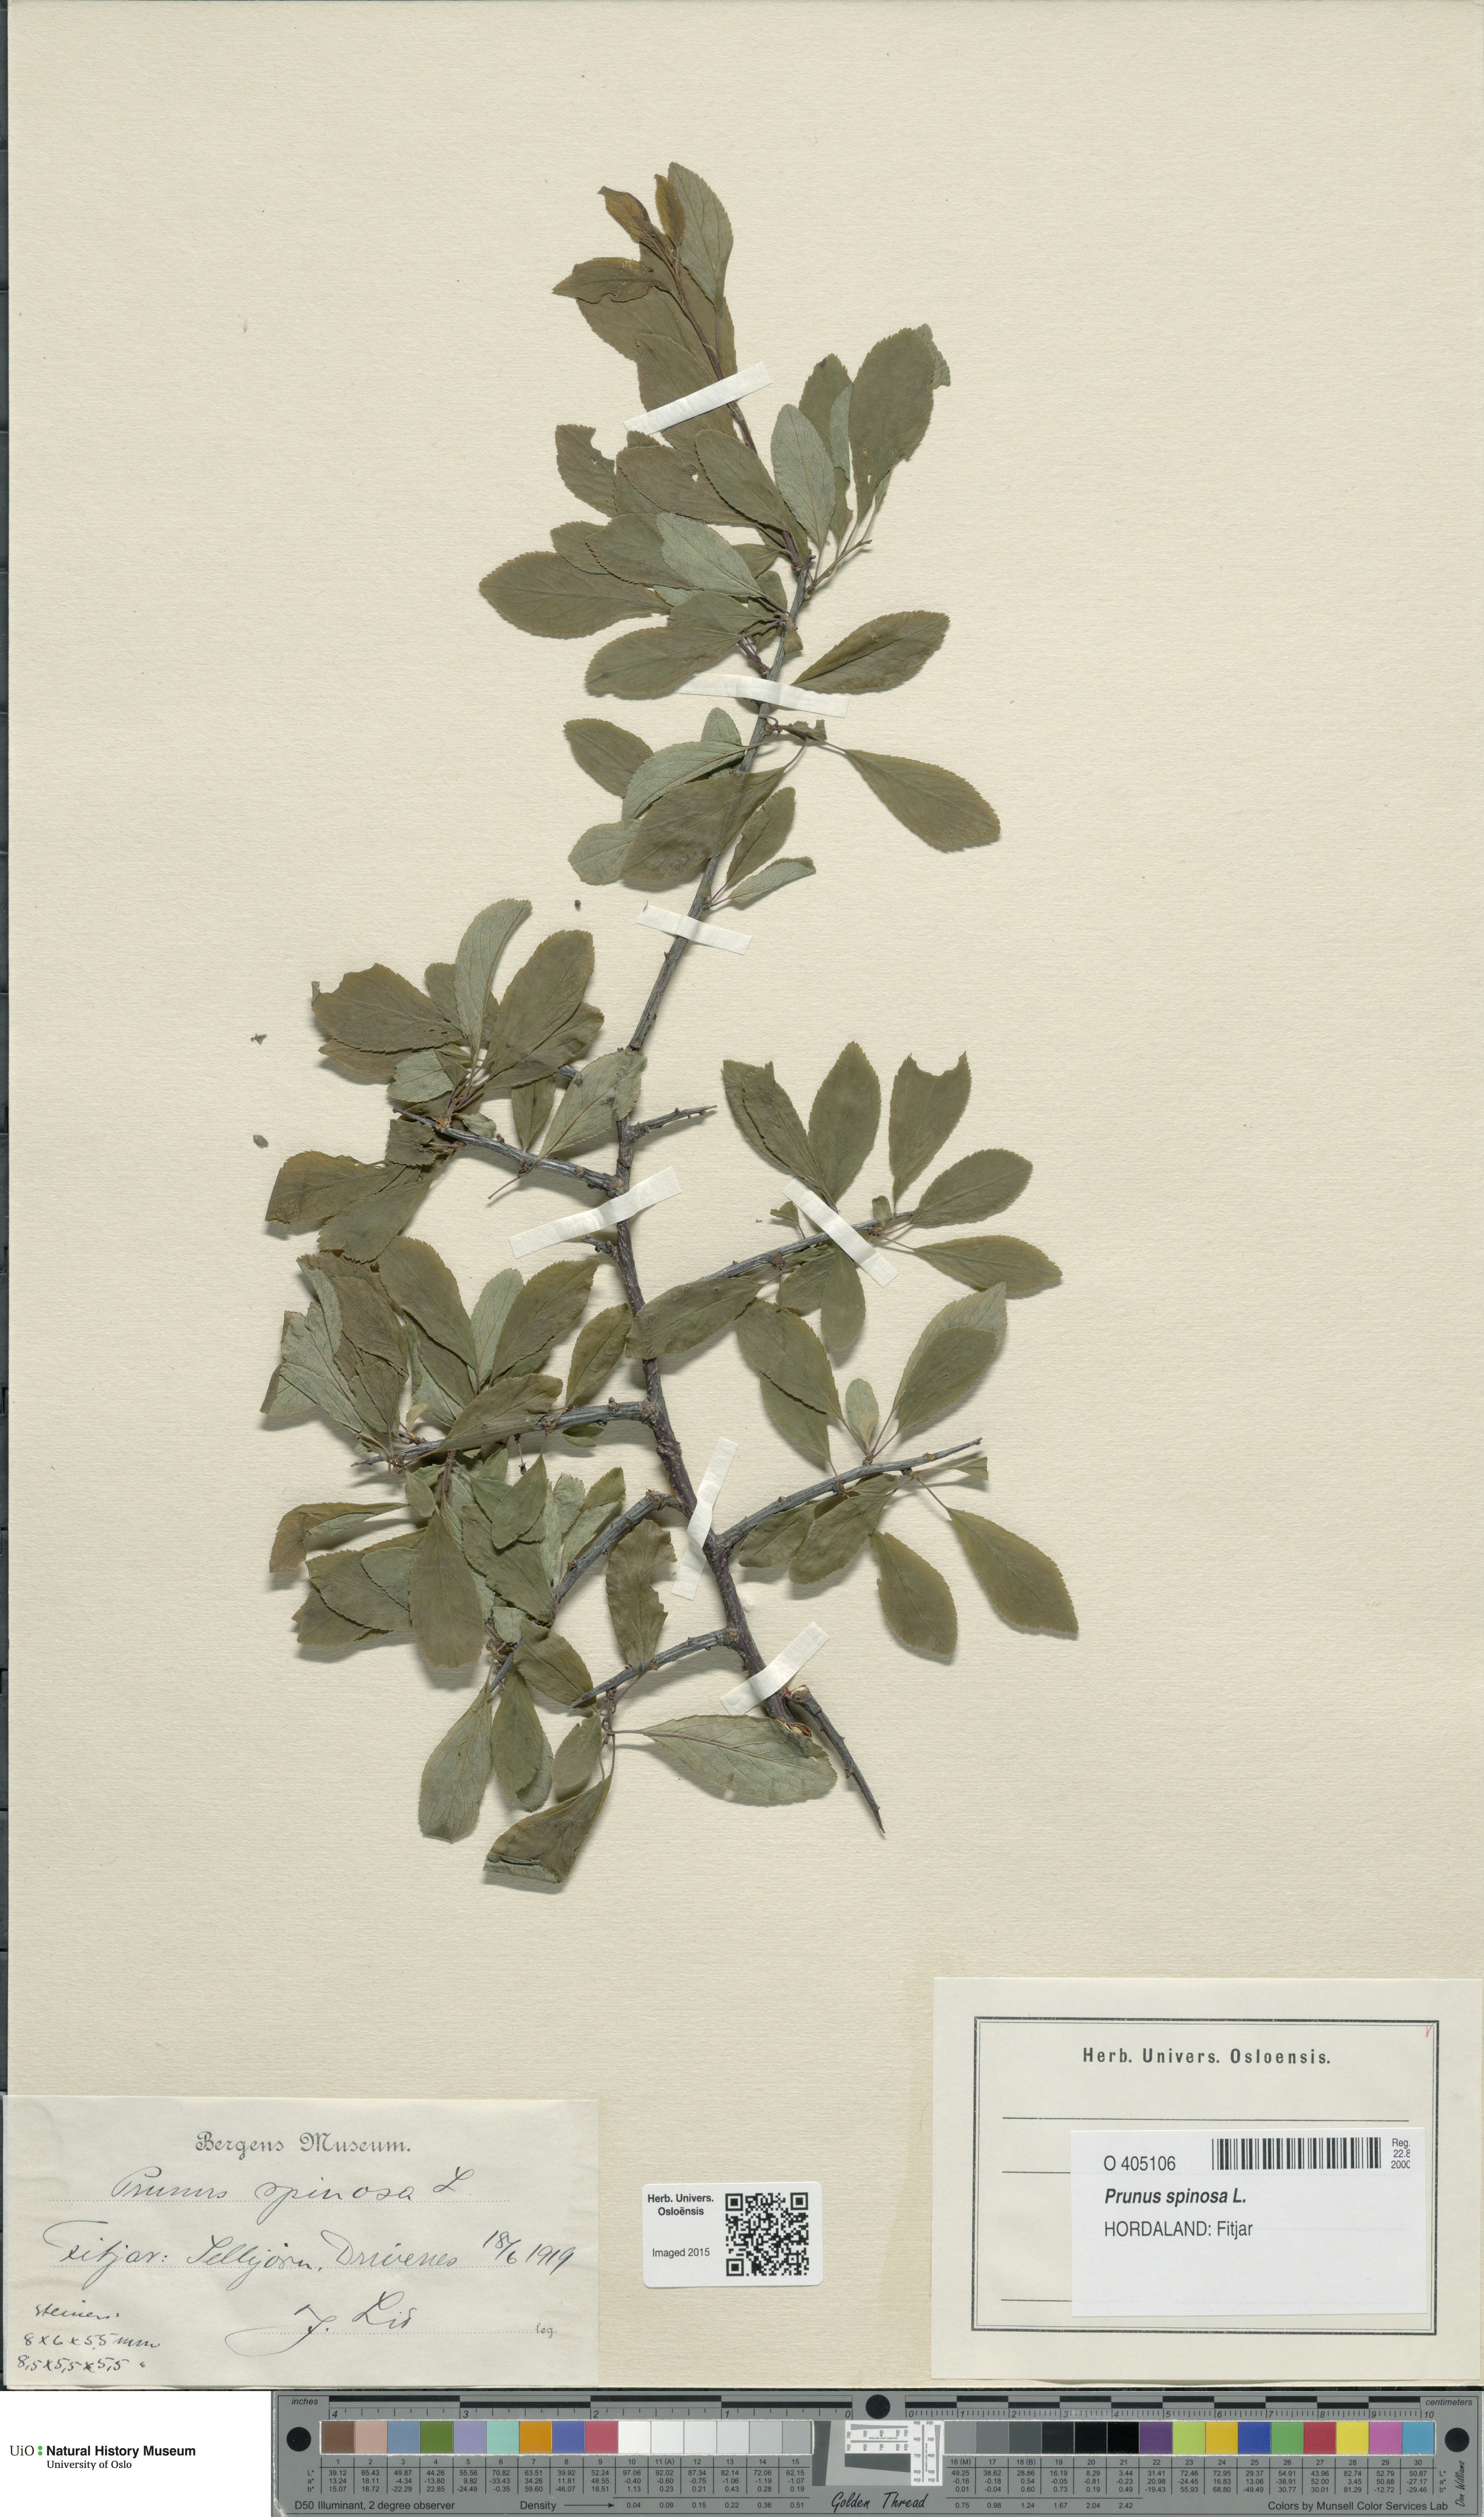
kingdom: Plantae
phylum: Tracheophyta
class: Magnoliopsida
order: Rosales
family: Rosaceae
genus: Prunus
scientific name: Prunus spinosa
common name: Blackthorn
